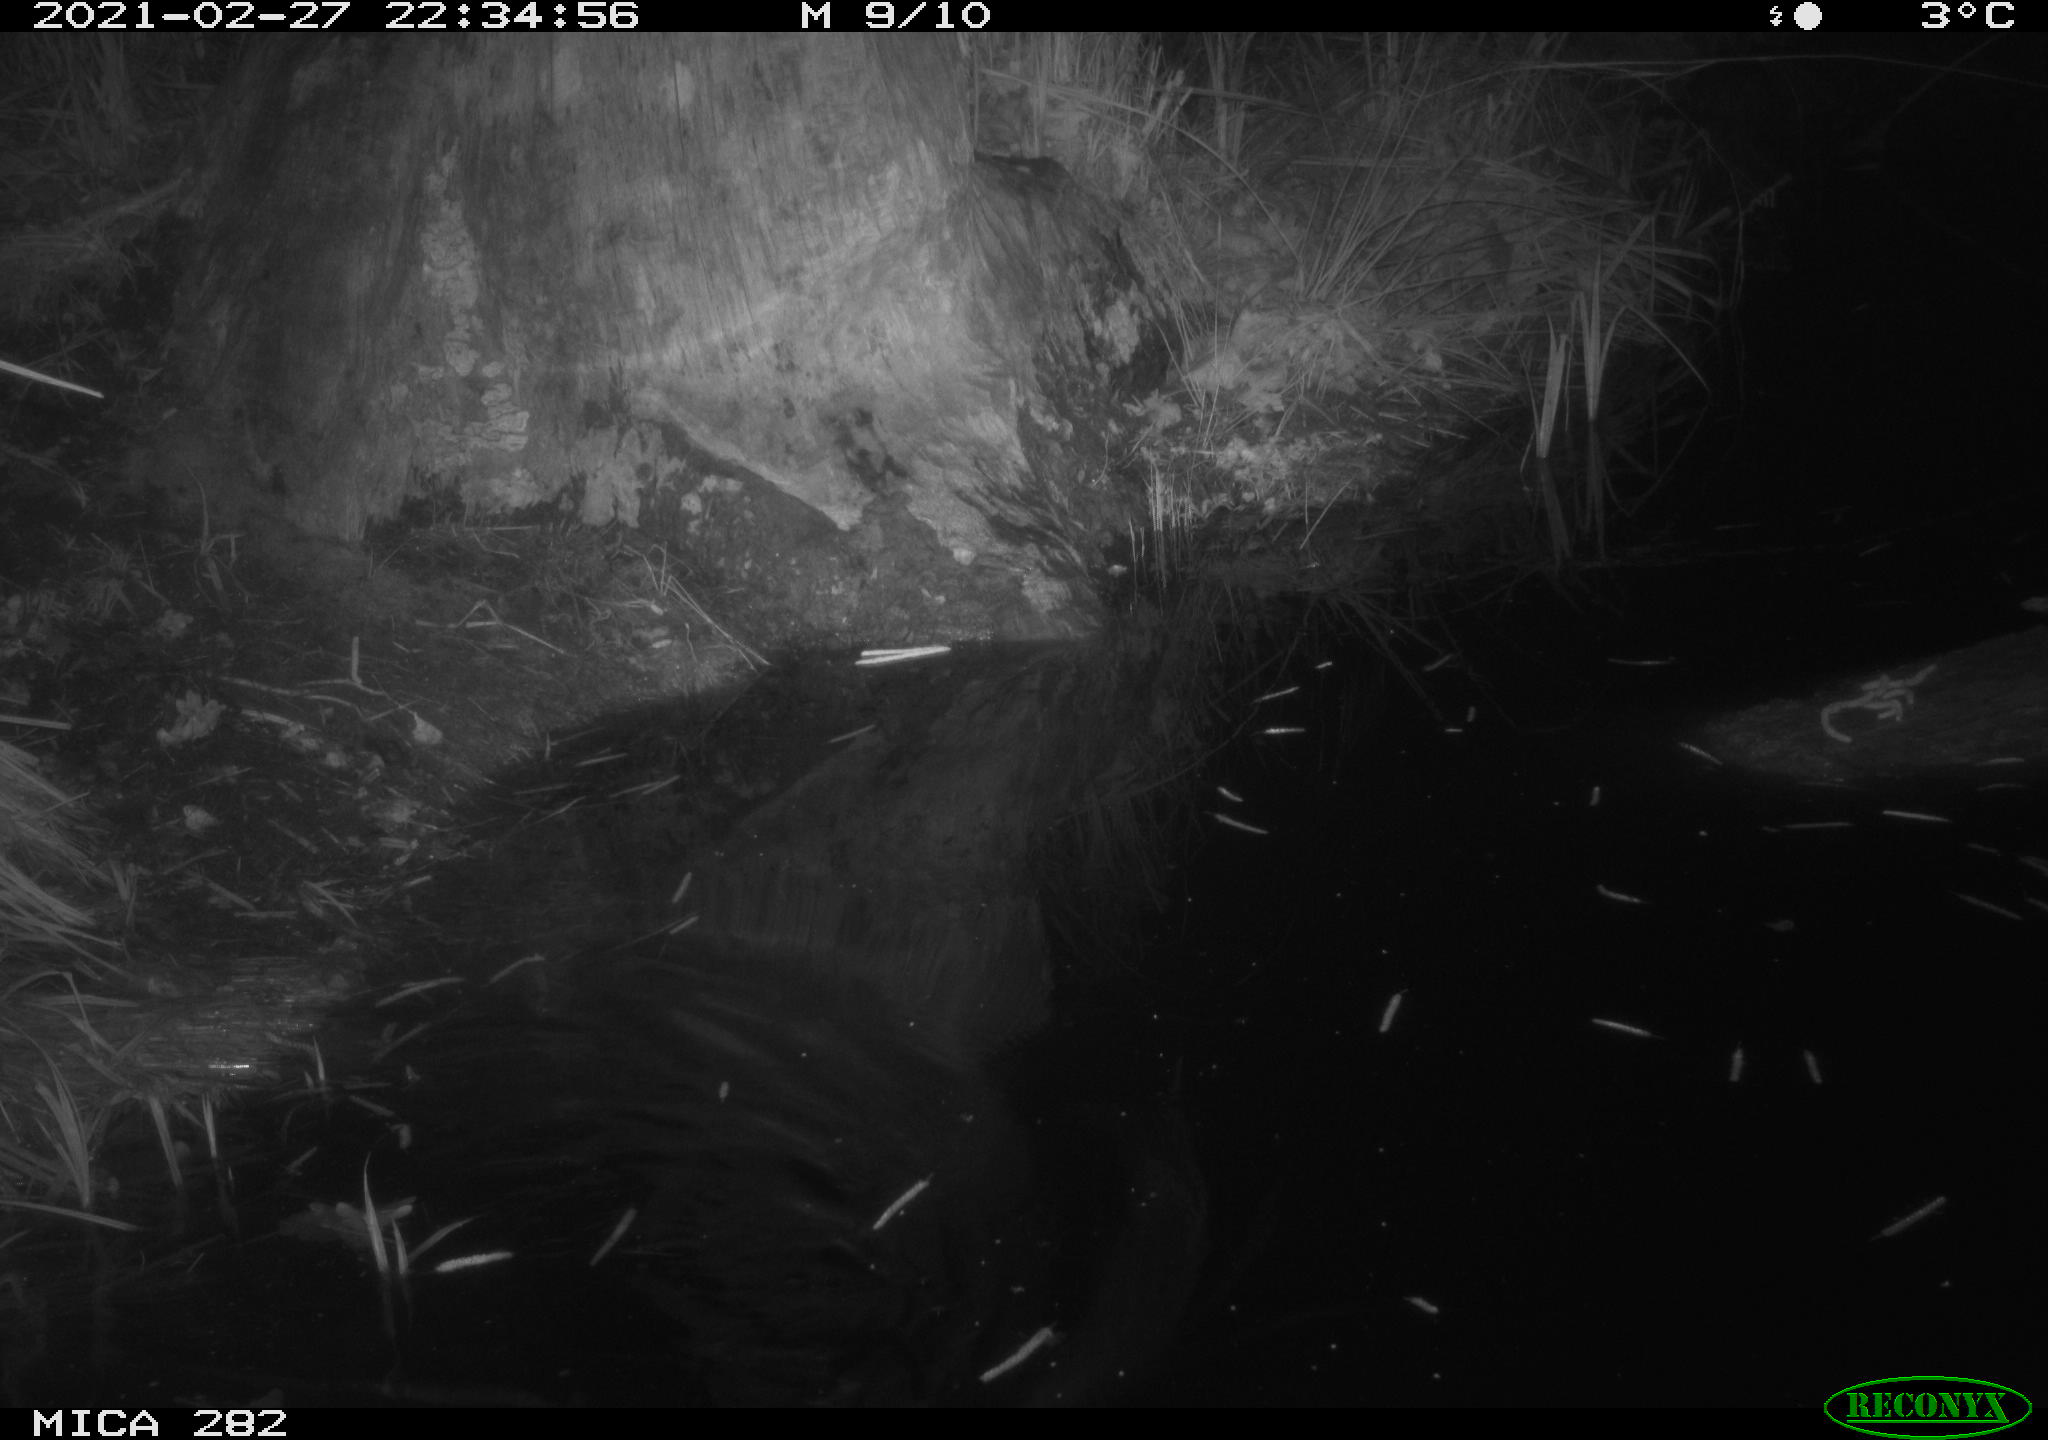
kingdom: Animalia
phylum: Chordata
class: Mammalia
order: Rodentia
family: Muridae
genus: Rattus
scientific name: Rattus norvegicus
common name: Brown rat
